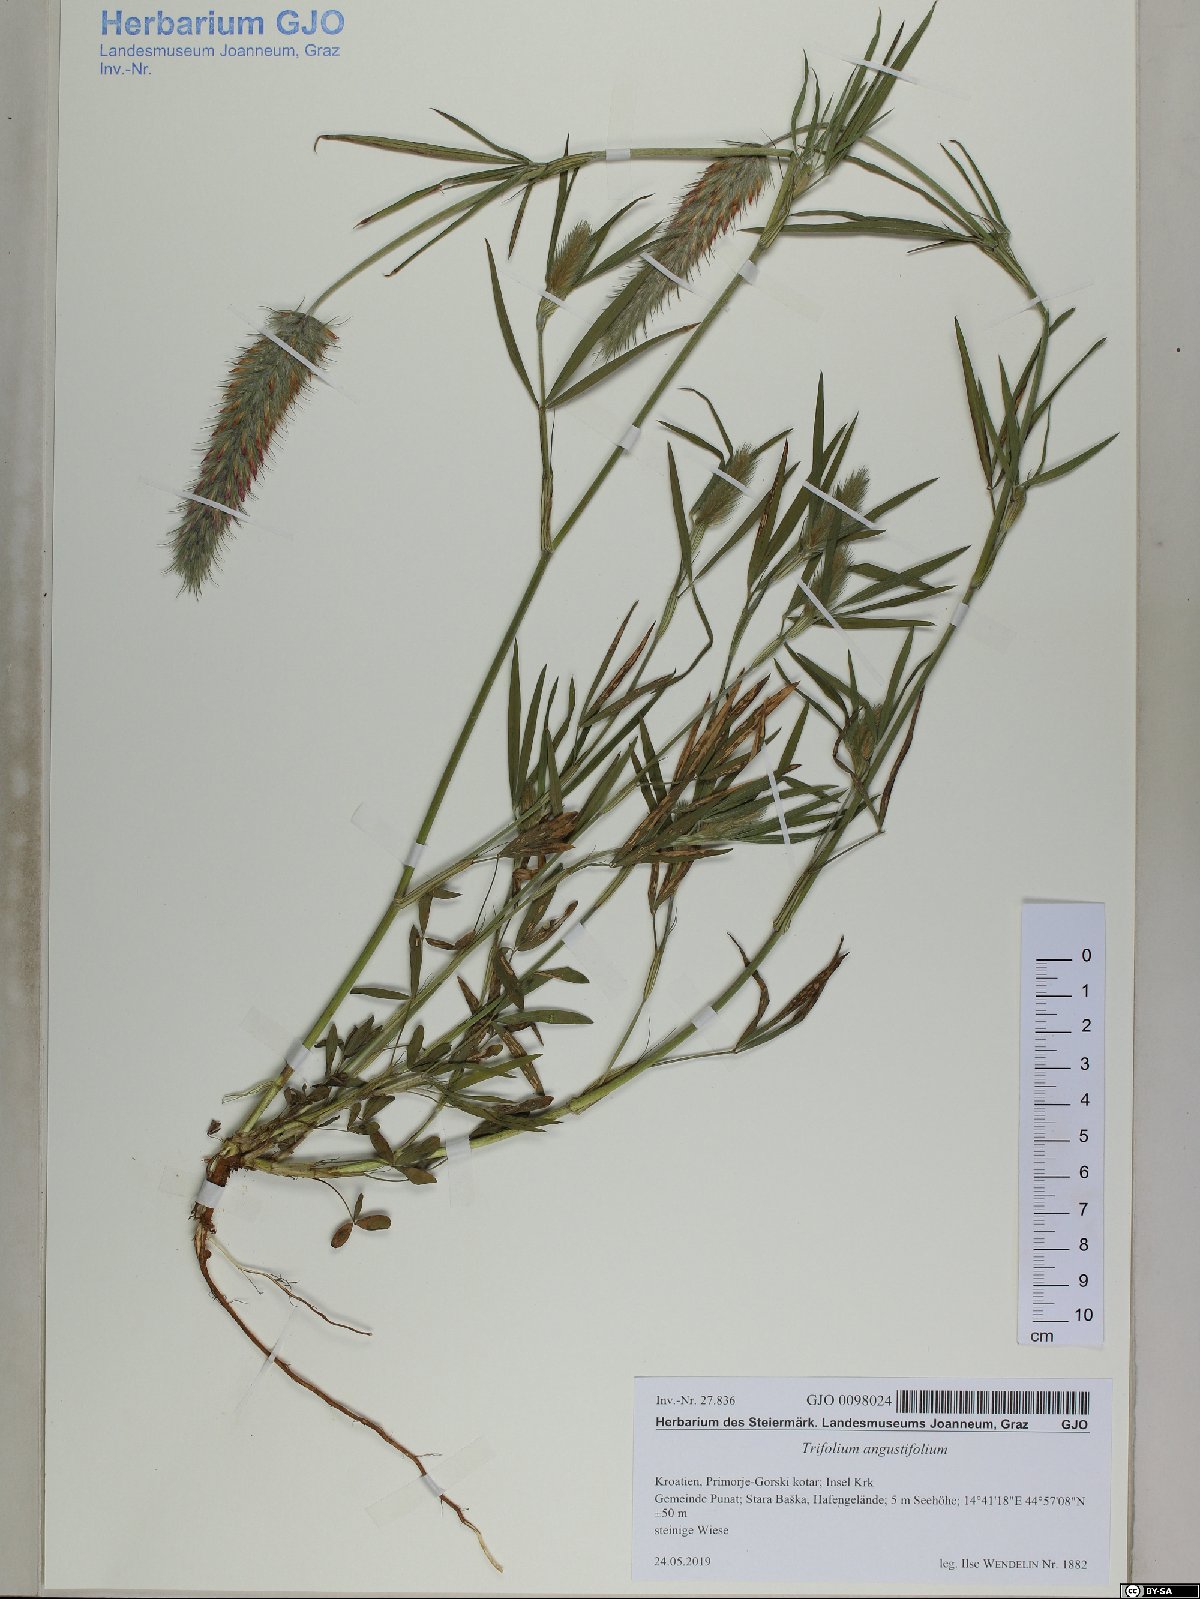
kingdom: Plantae
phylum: Tracheophyta
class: Magnoliopsida
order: Fabales
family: Fabaceae
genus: Trifolium
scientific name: Trifolium angustifolium
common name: Narrow clover
